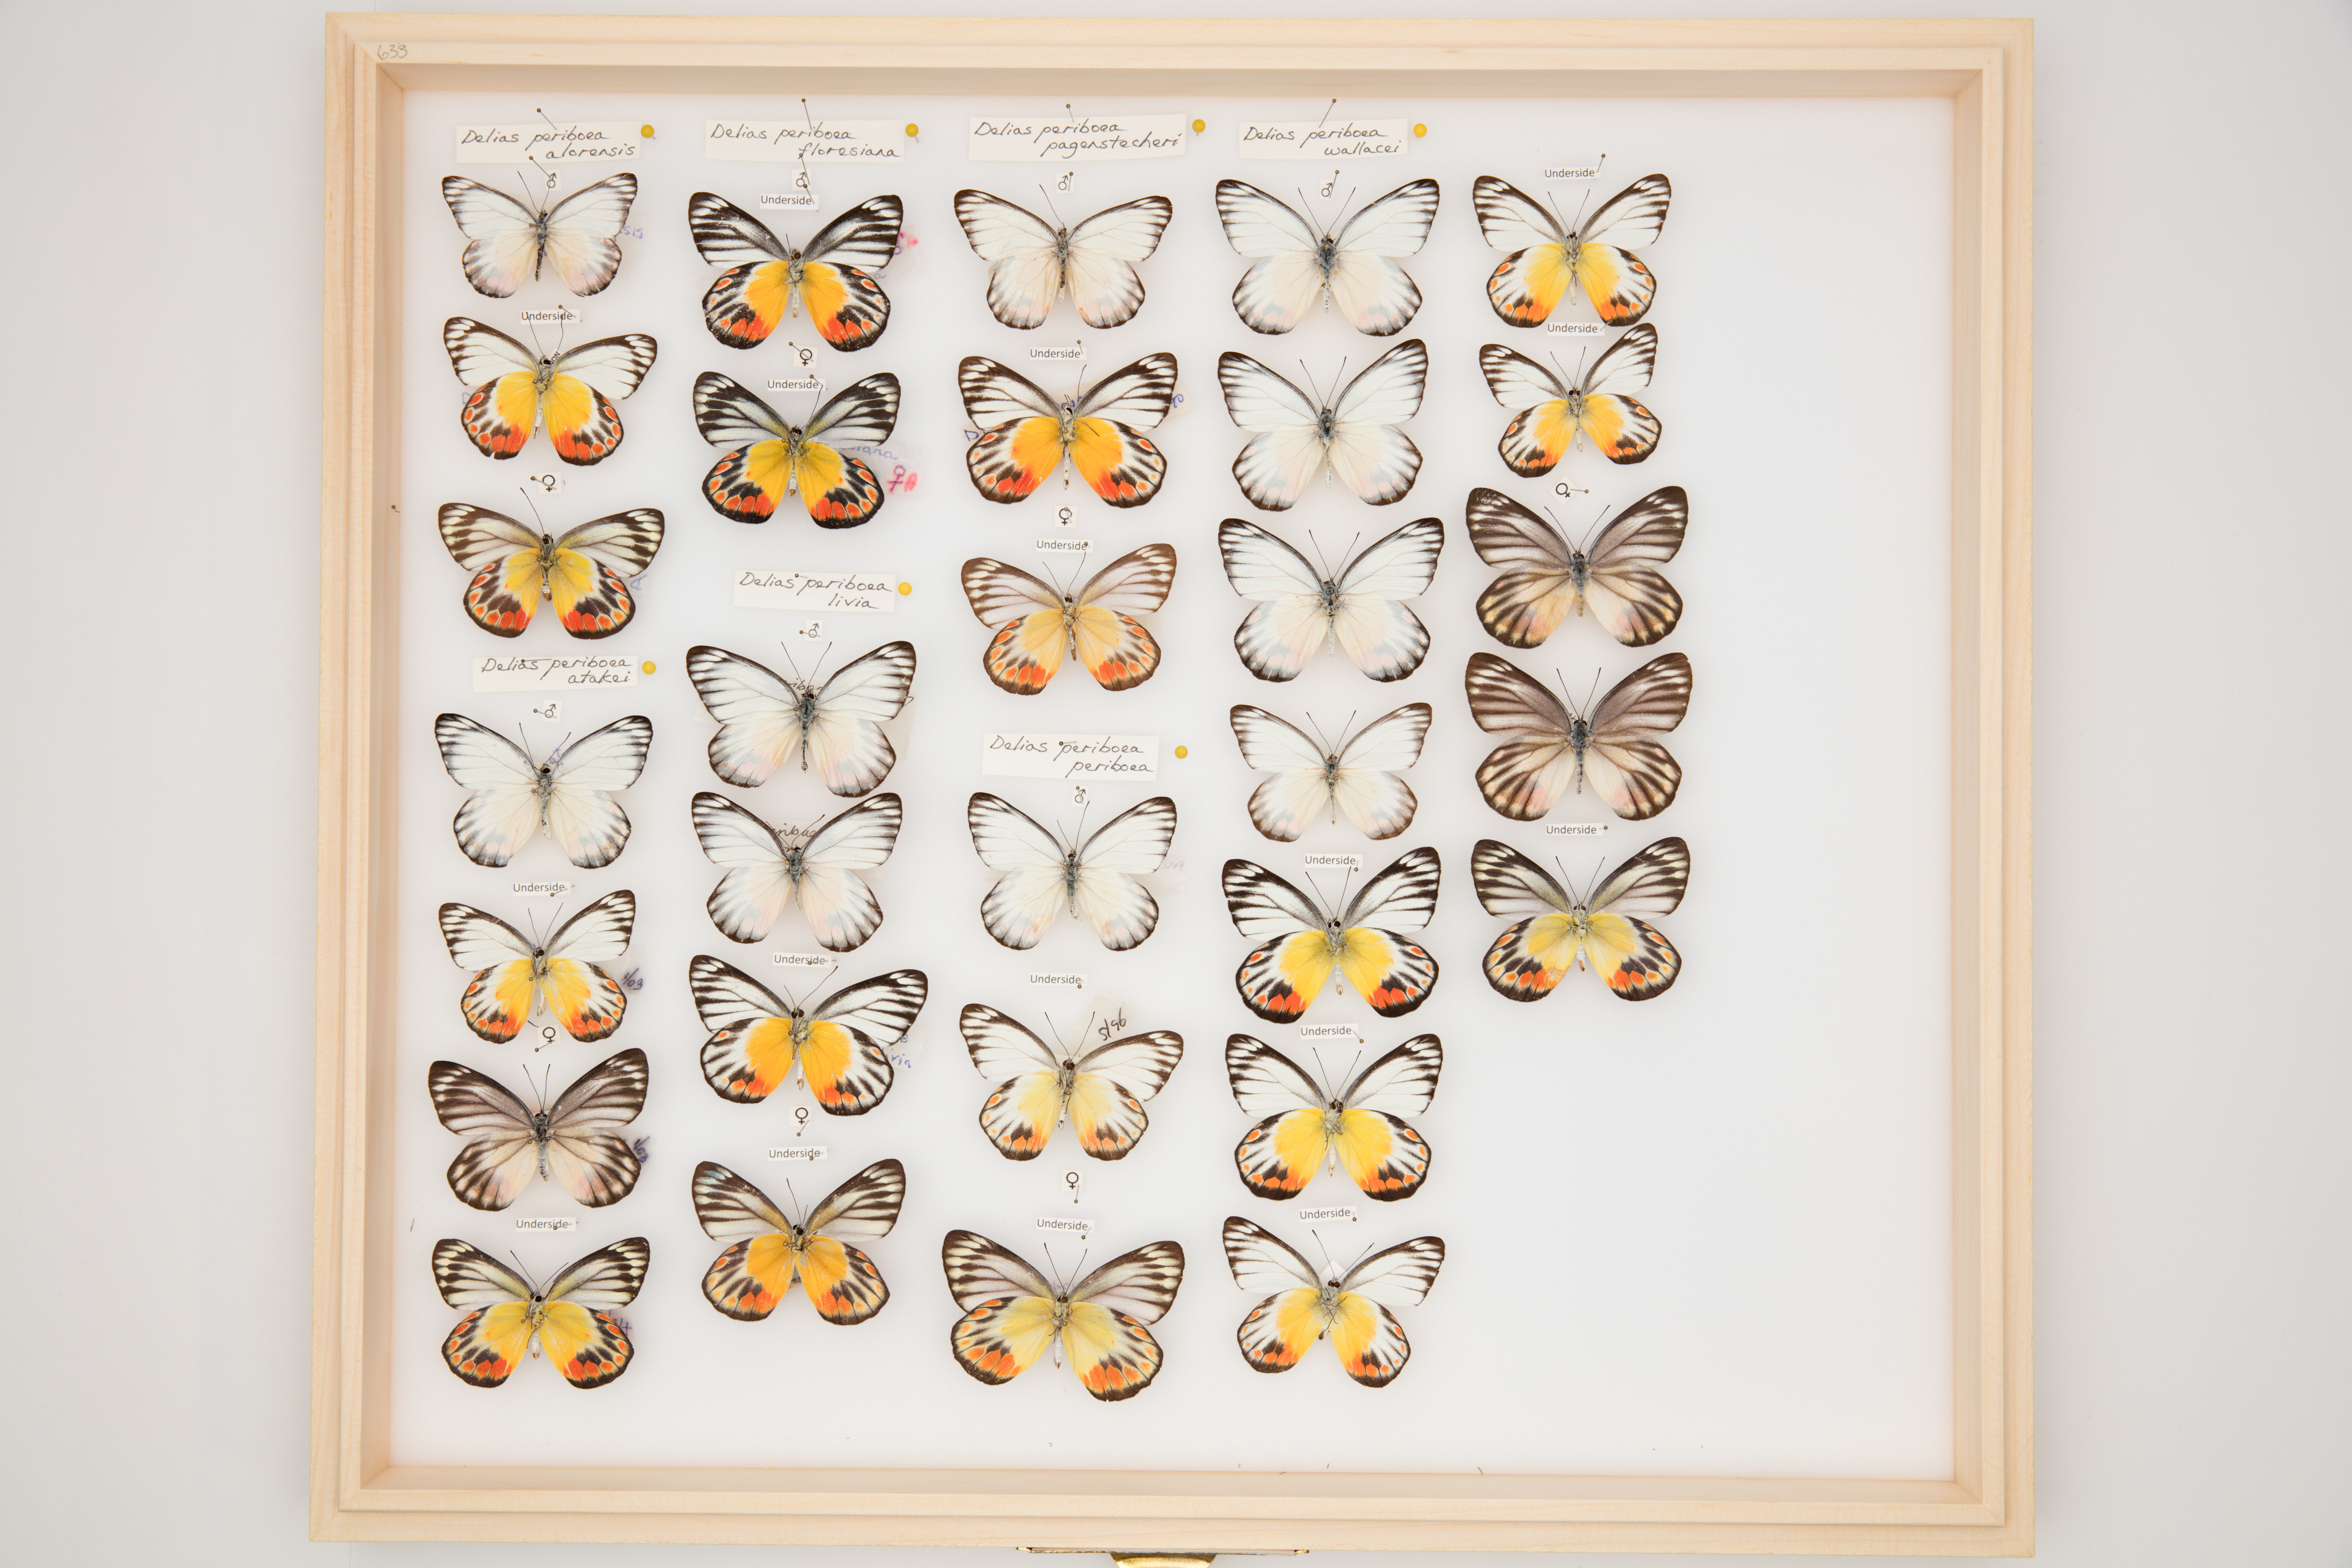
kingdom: Animalia
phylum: Arthropoda
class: Insecta
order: Lepidoptera
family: Pieridae
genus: Delias
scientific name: Delias periboea
